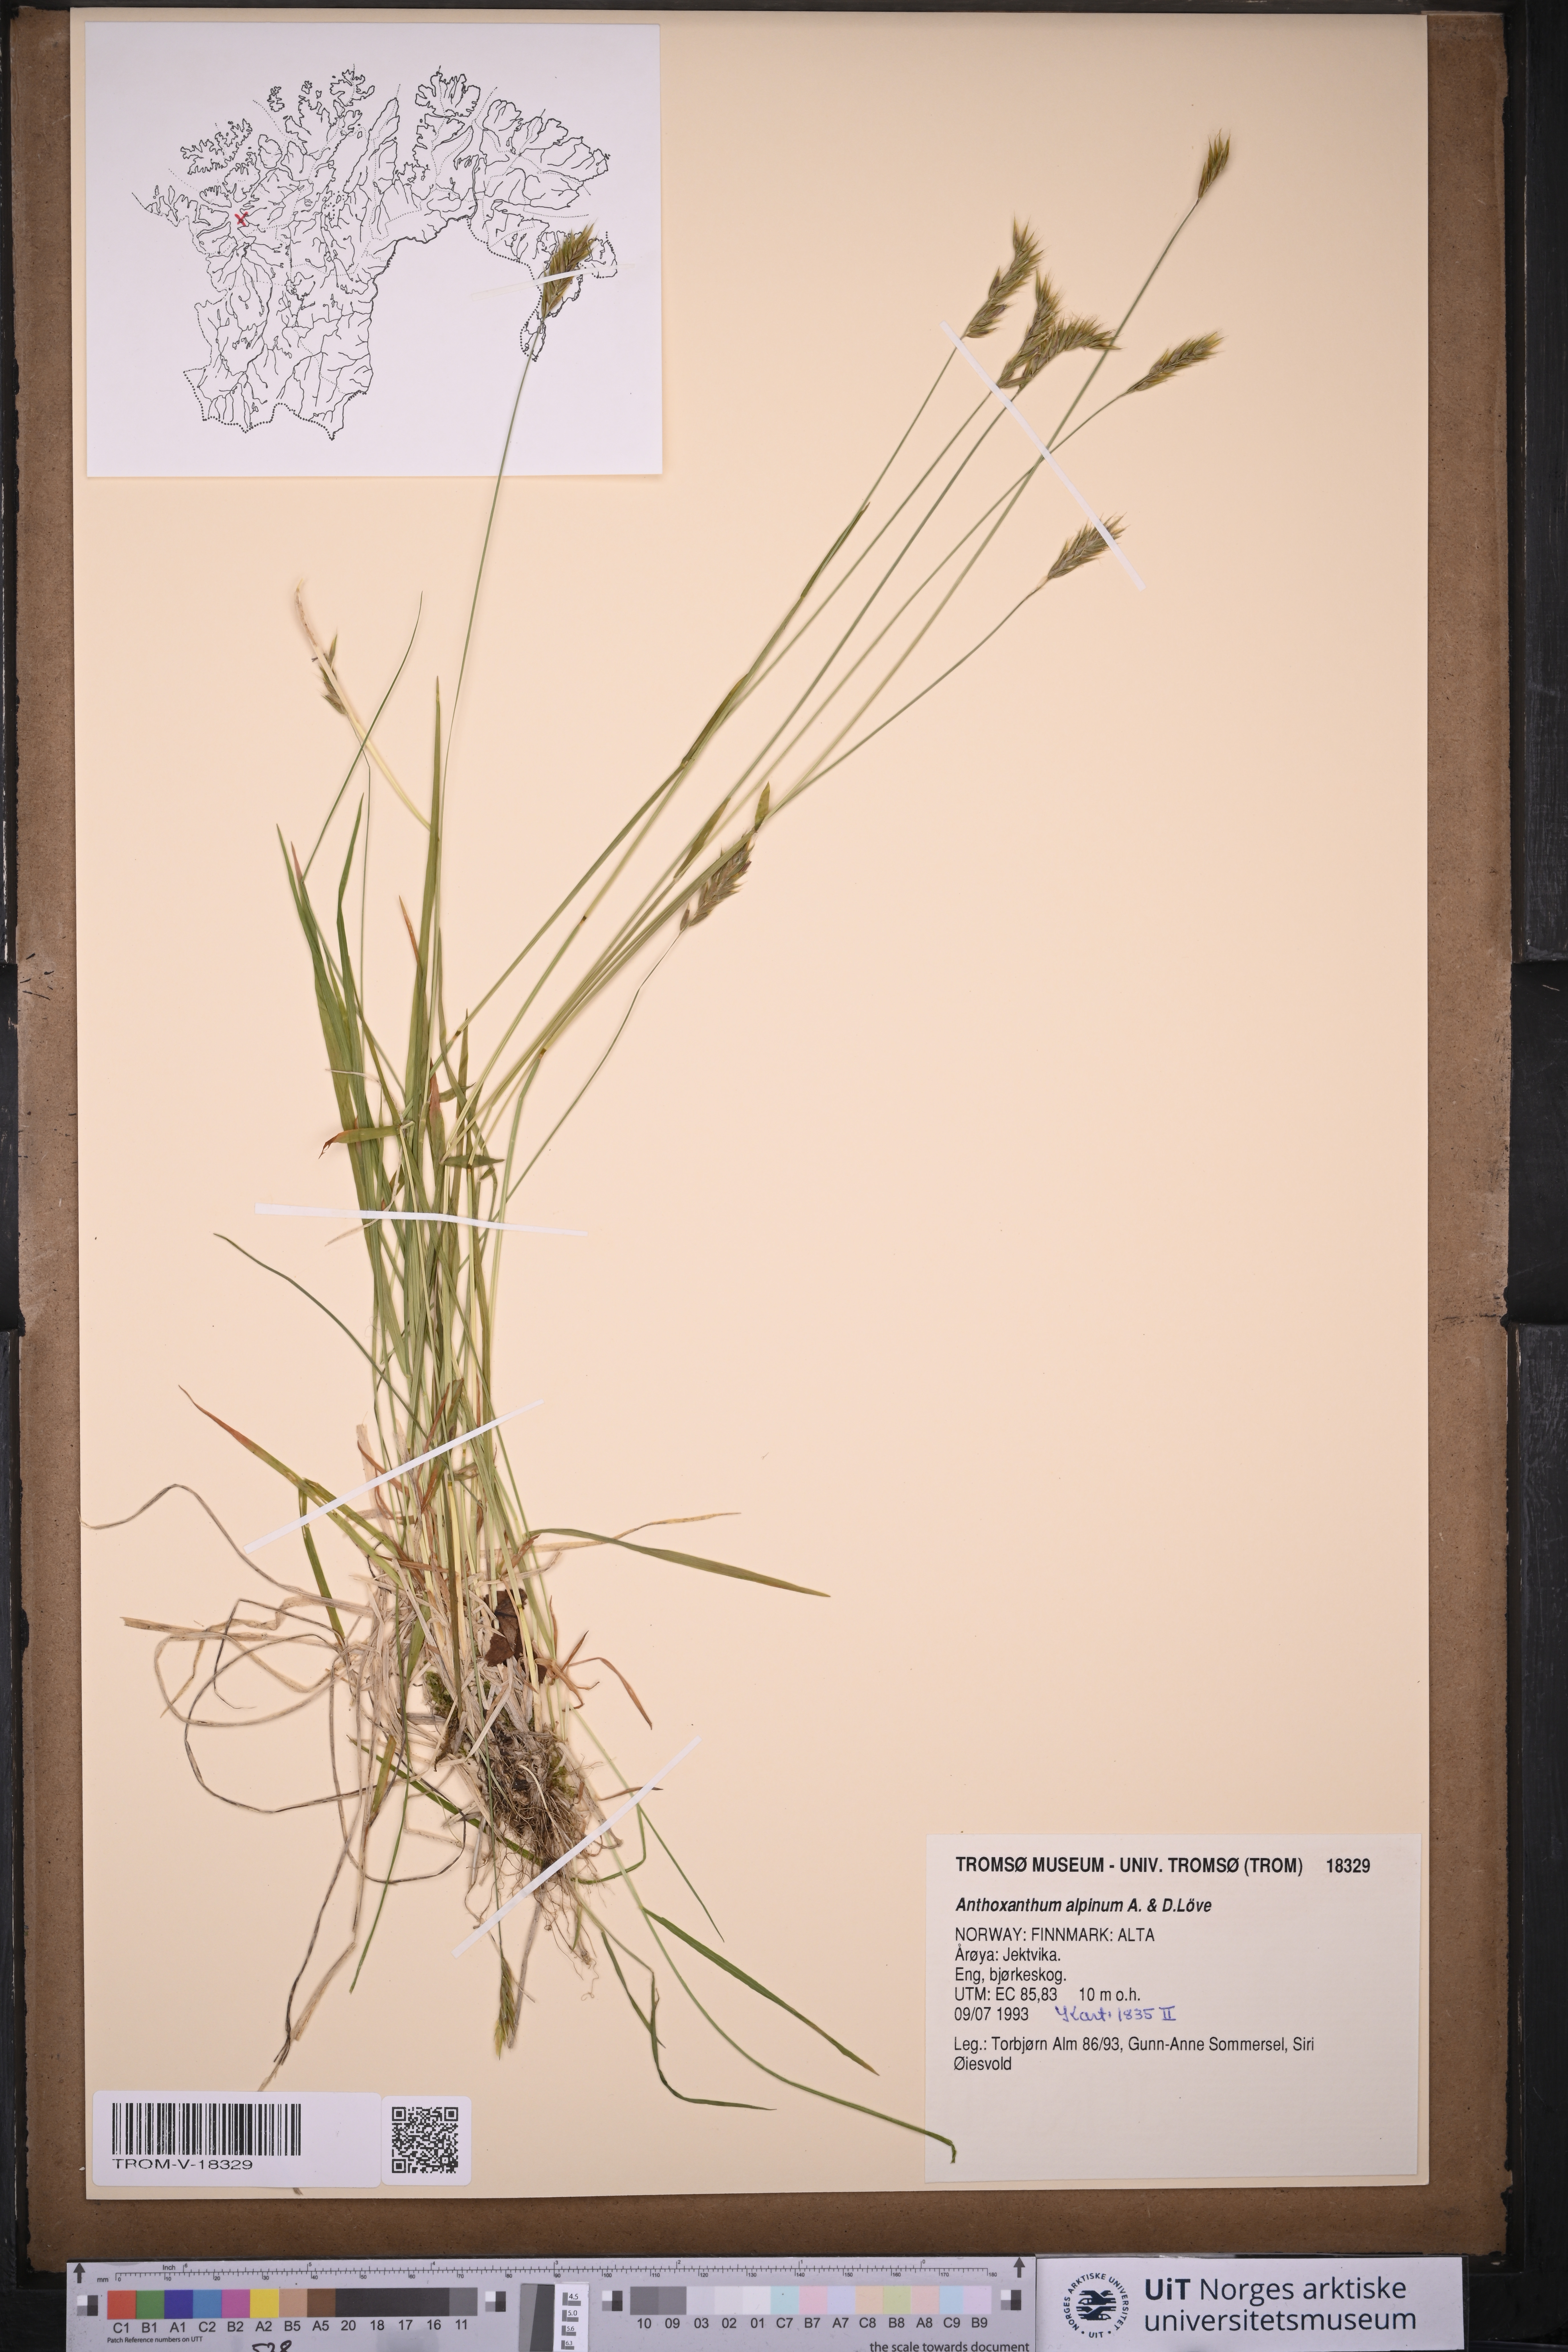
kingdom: Plantae
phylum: Tracheophyta
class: Liliopsida
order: Poales
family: Poaceae
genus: Anthoxanthum
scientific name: Anthoxanthum nipponicum
